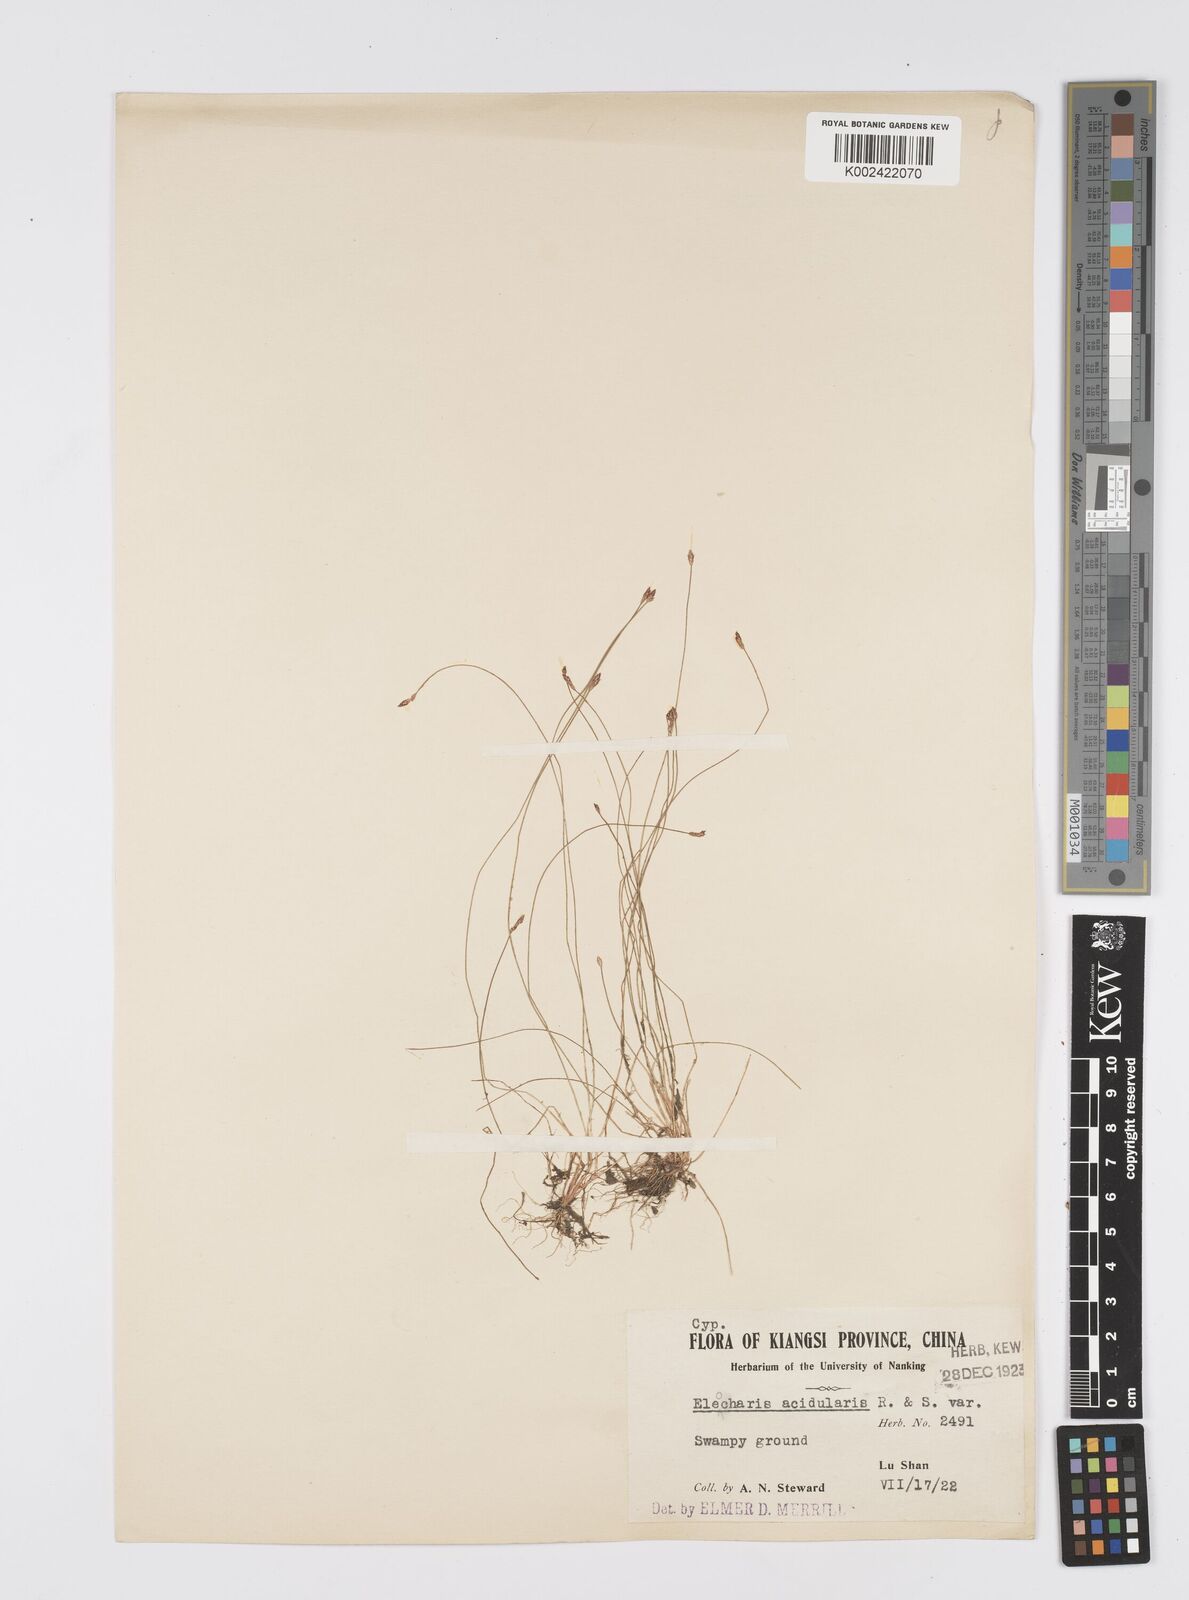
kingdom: Plantae
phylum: Tracheophyta
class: Liliopsida
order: Poales
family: Cyperaceae
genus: Eleocharis
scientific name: Eleocharis acicularis
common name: Needle spike-rush
